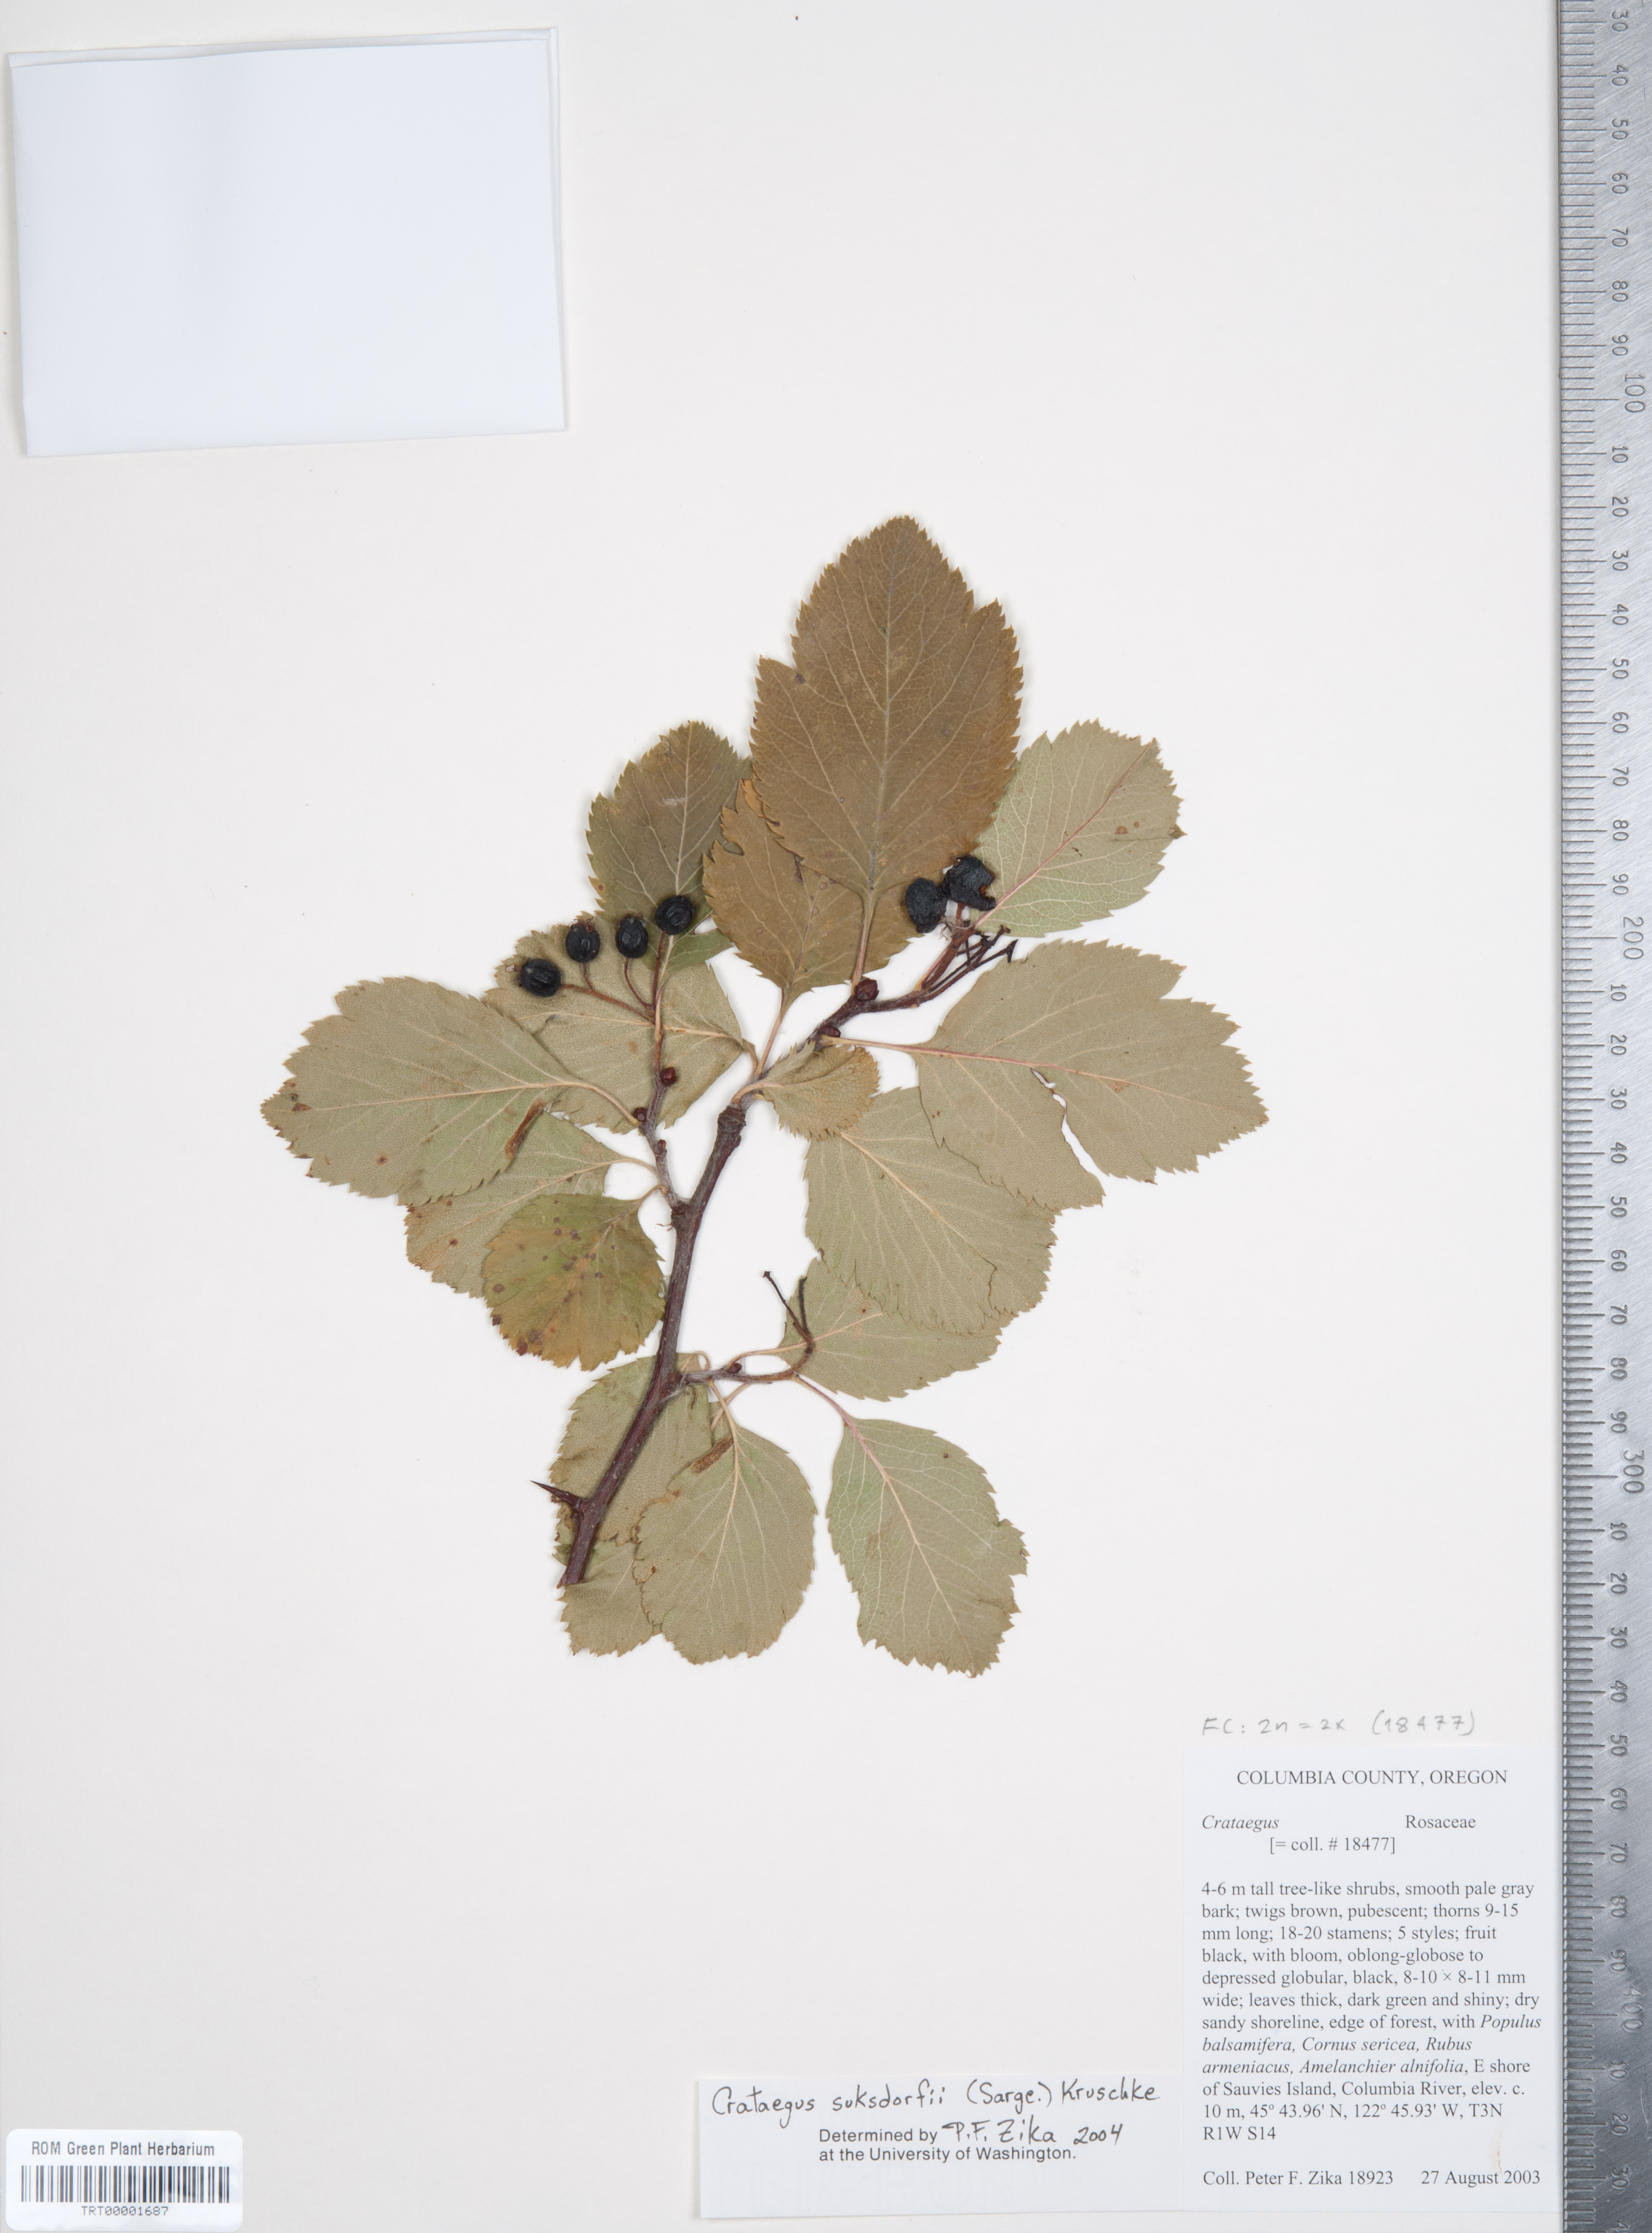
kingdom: Plantae
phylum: Tracheophyta
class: Magnoliopsida
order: Rosales
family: Rosaceae
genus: Crataegus
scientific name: Crataegus gaylussacia
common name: Huckleberry hawthorn
